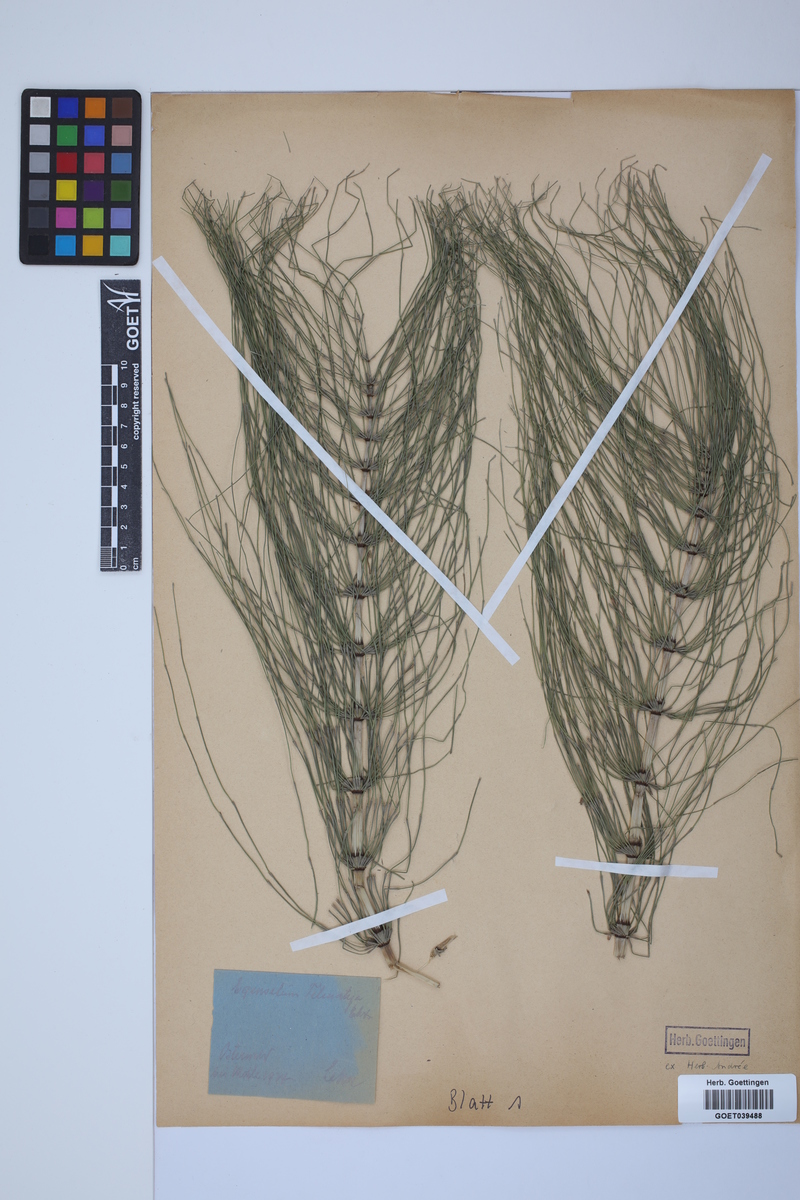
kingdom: Plantae
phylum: Tracheophyta
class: Polypodiopsida
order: Equisetales
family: Equisetaceae
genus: Equisetum
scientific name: Equisetum telmateia
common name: Great horsetail
